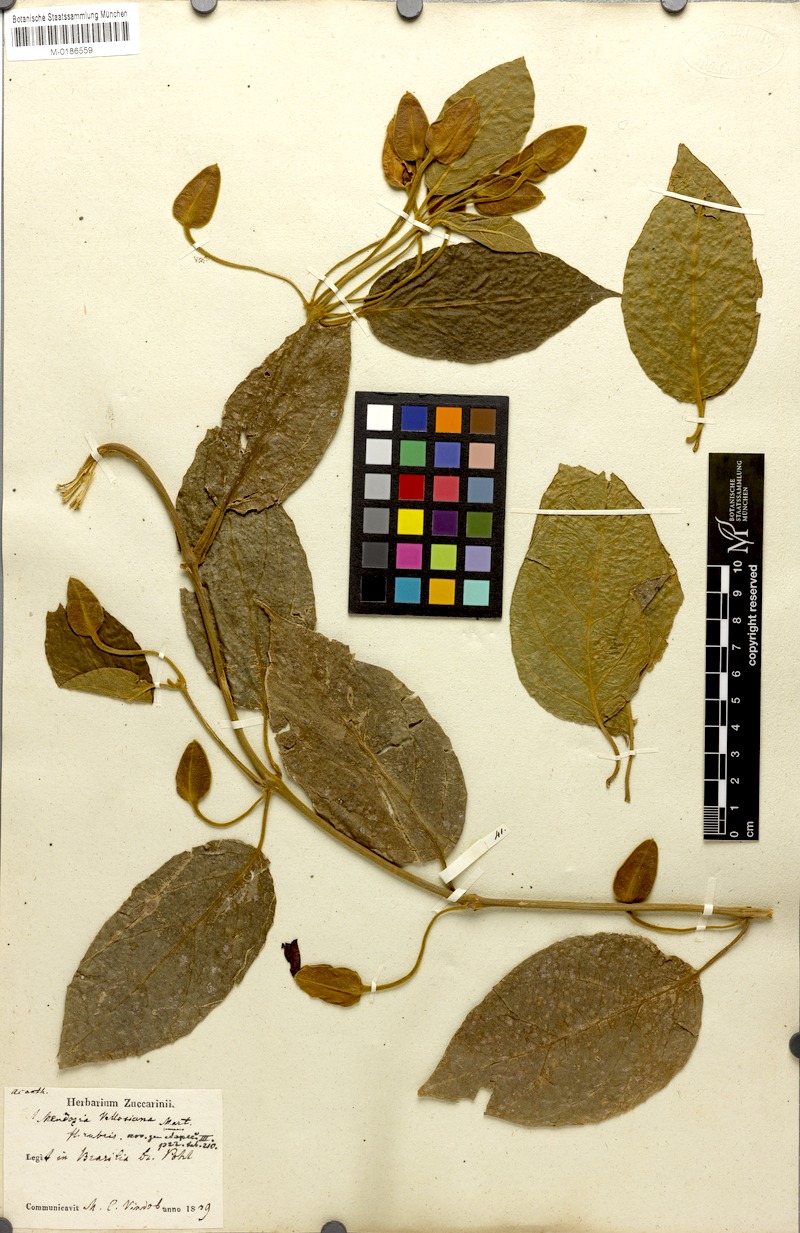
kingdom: Plantae
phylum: Tracheophyta
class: Magnoliopsida
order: Lamiales
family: Acanthaceae
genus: Mendoncia
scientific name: Mendoncia coccinea
